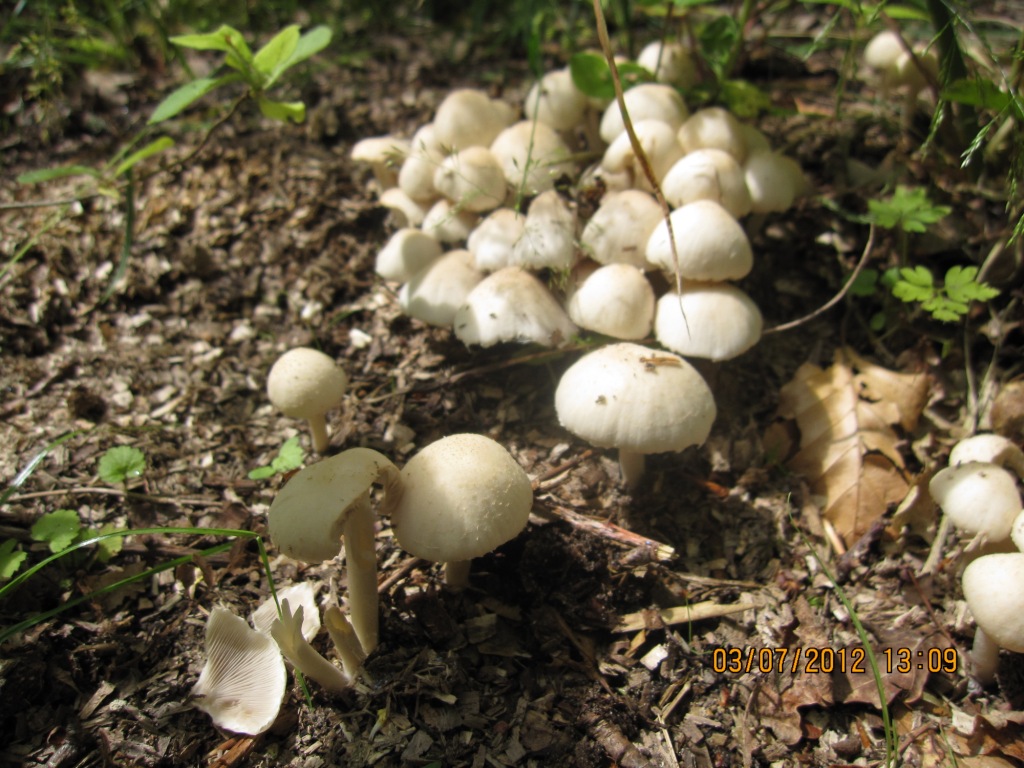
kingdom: Fungi
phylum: Basidiomycota
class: Agaricomycetes
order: Agaricales
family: Psathyrellaceae
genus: Candolleomyces
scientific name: Candolleomyces candolleanus
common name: Candolles mørkhat
